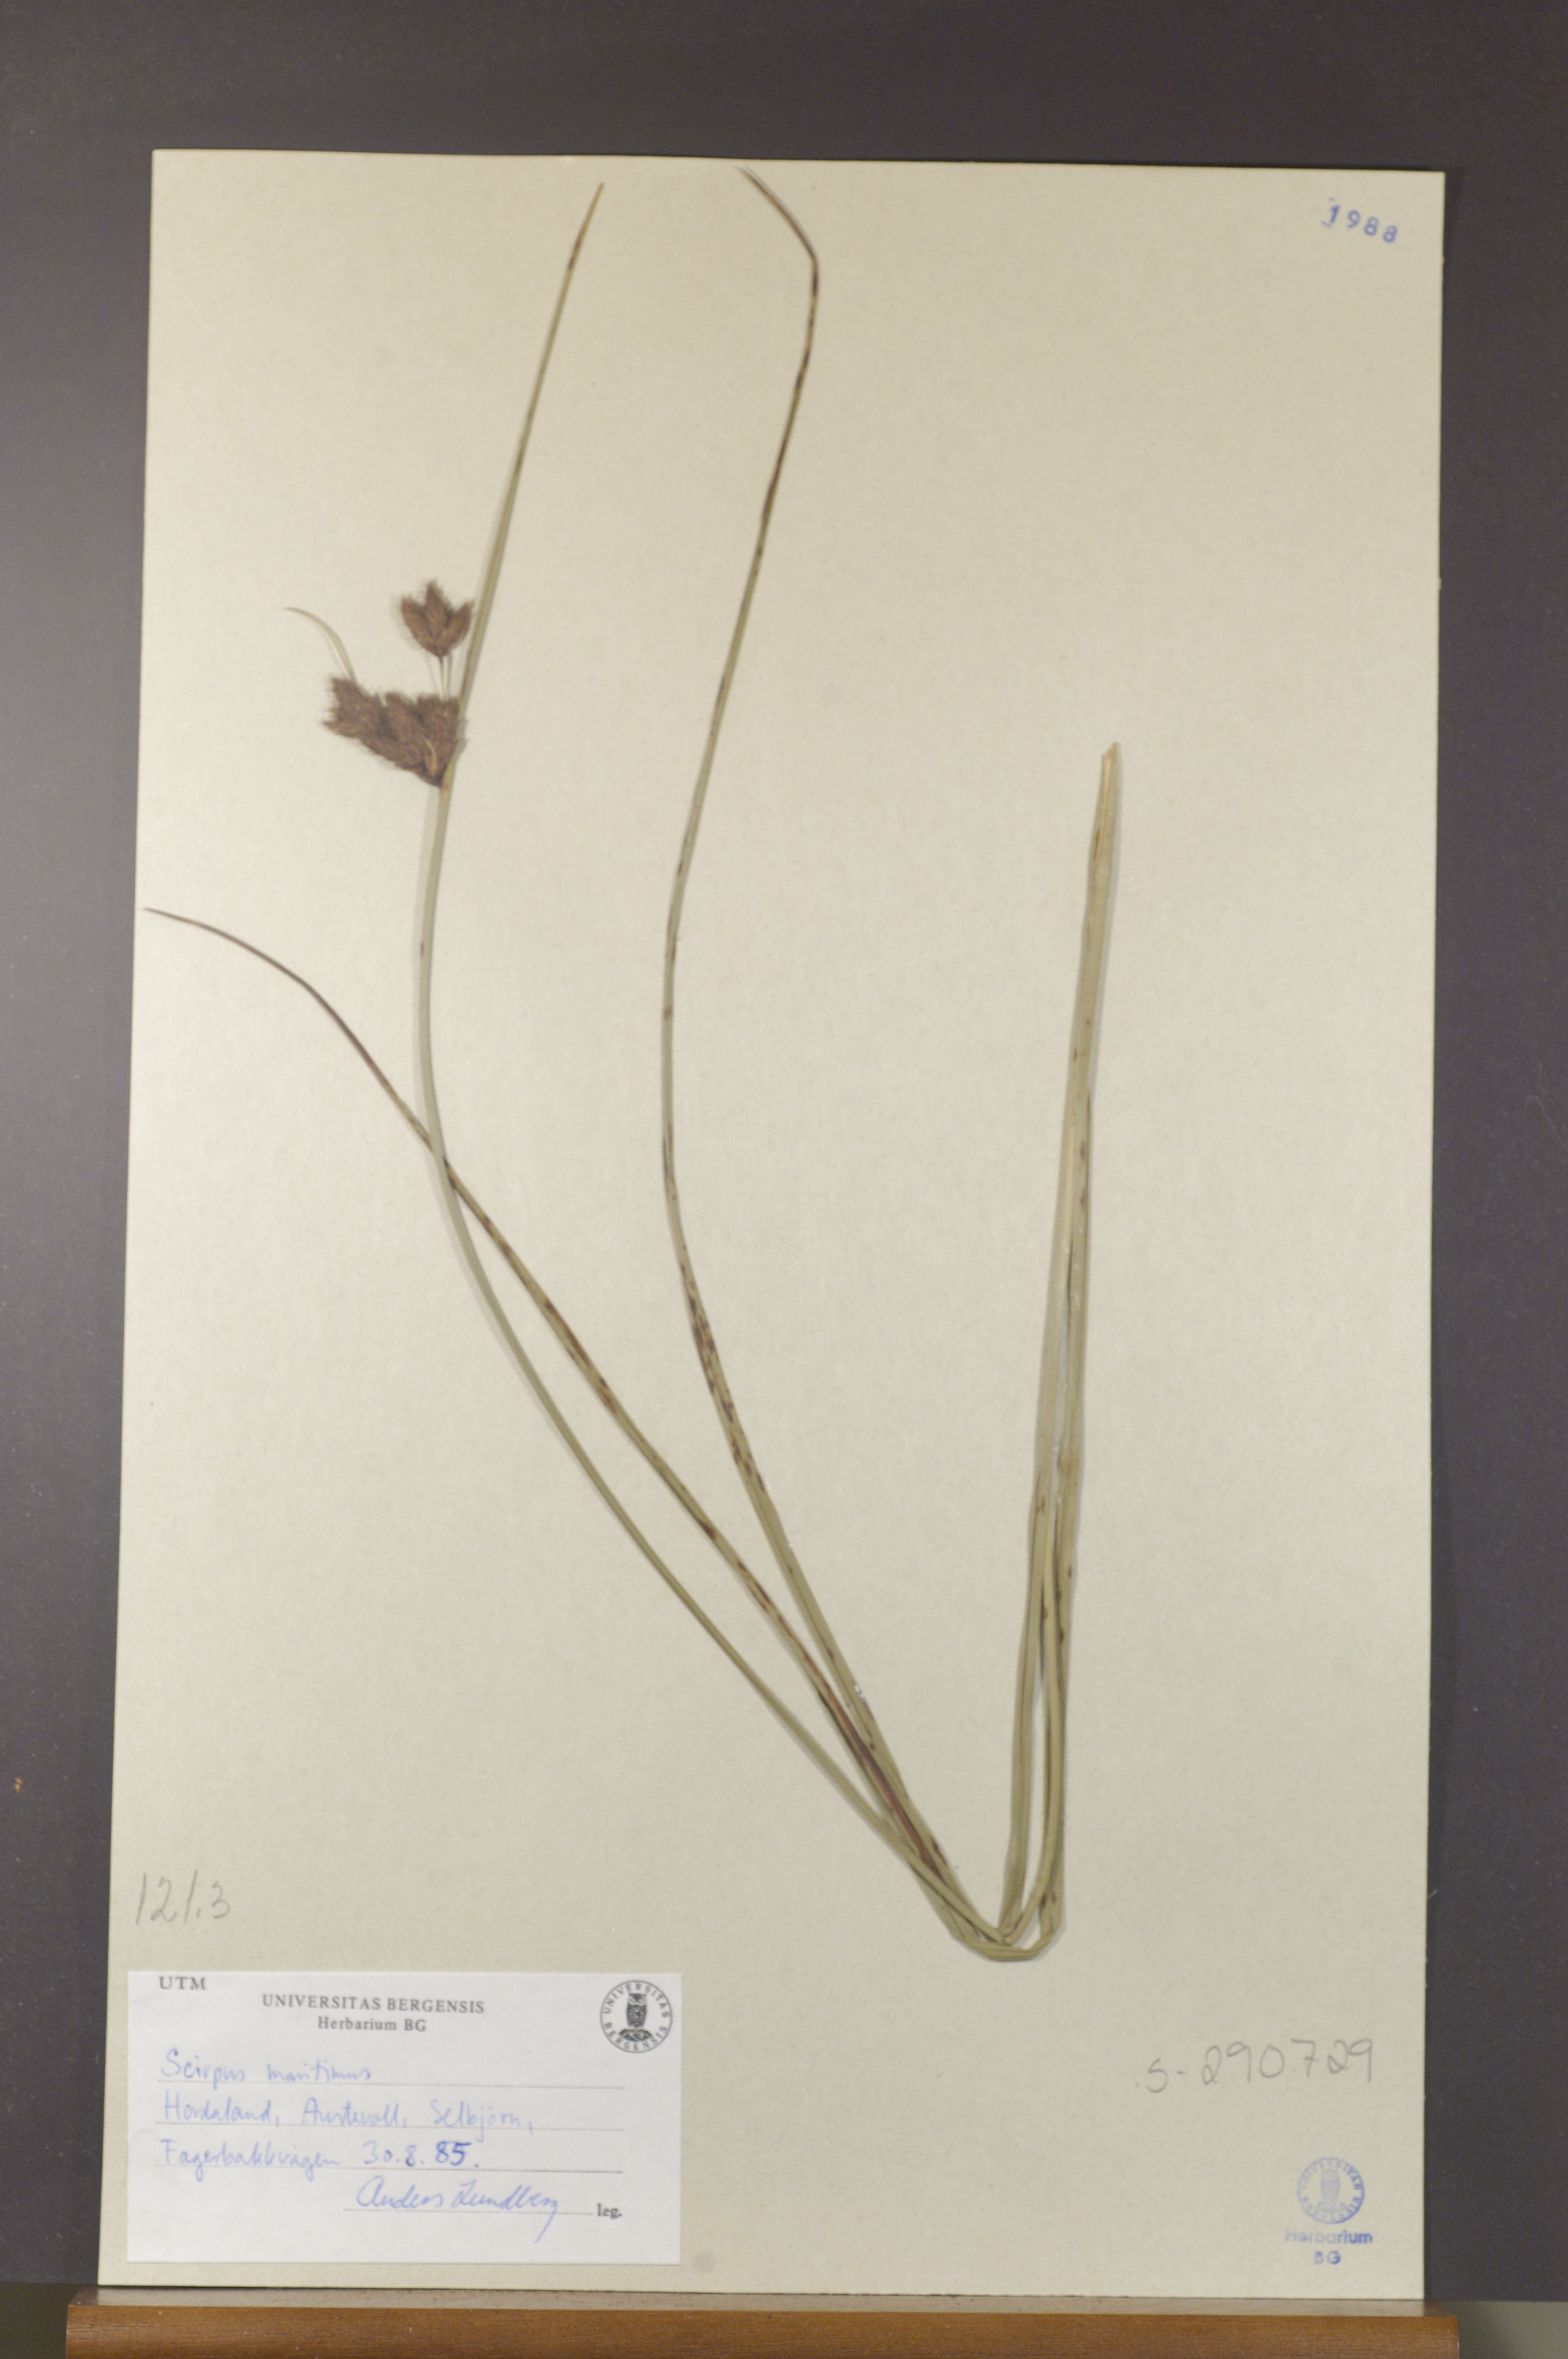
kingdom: Plantae
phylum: Tracheophyta
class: Liliopsida
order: Poales
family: Cyperaceae
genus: Bolboschoenus
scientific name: Bolboschoenus maritimus
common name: Sea club-rush
